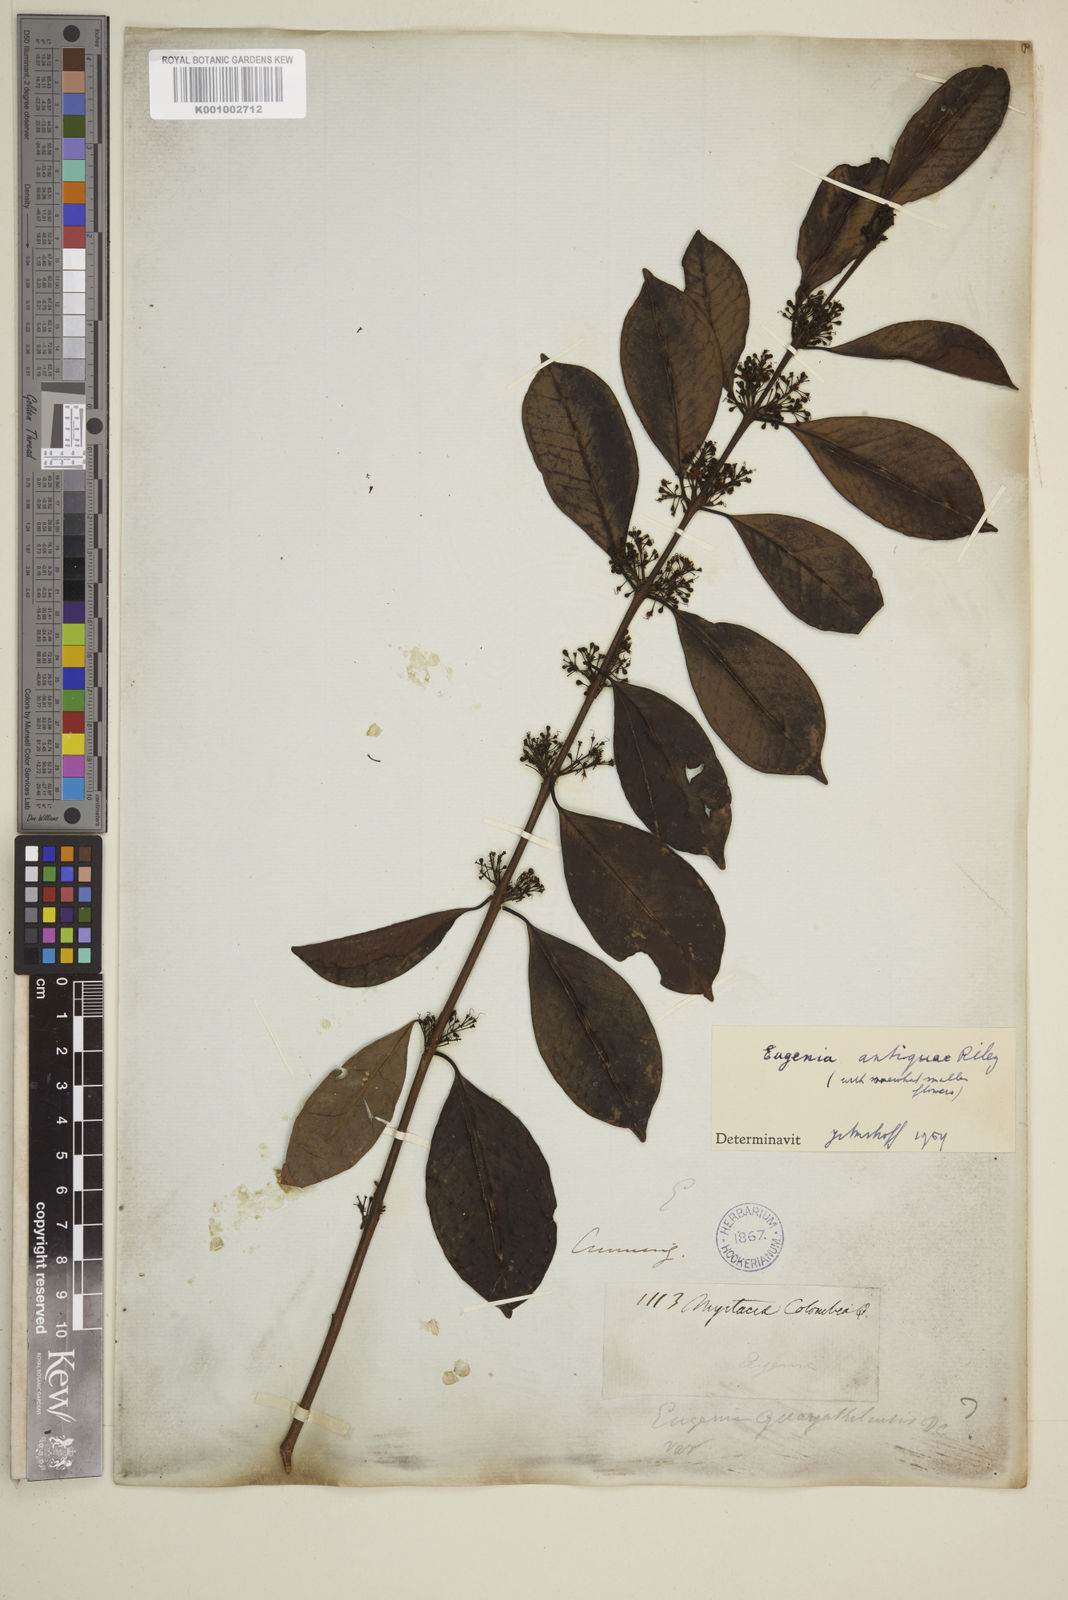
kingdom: Plantae
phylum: Tracheophyta
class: Magnoliopsida
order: Myrtales
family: Myrtaceae
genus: Eugenia
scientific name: Eugenia acapulcensis
